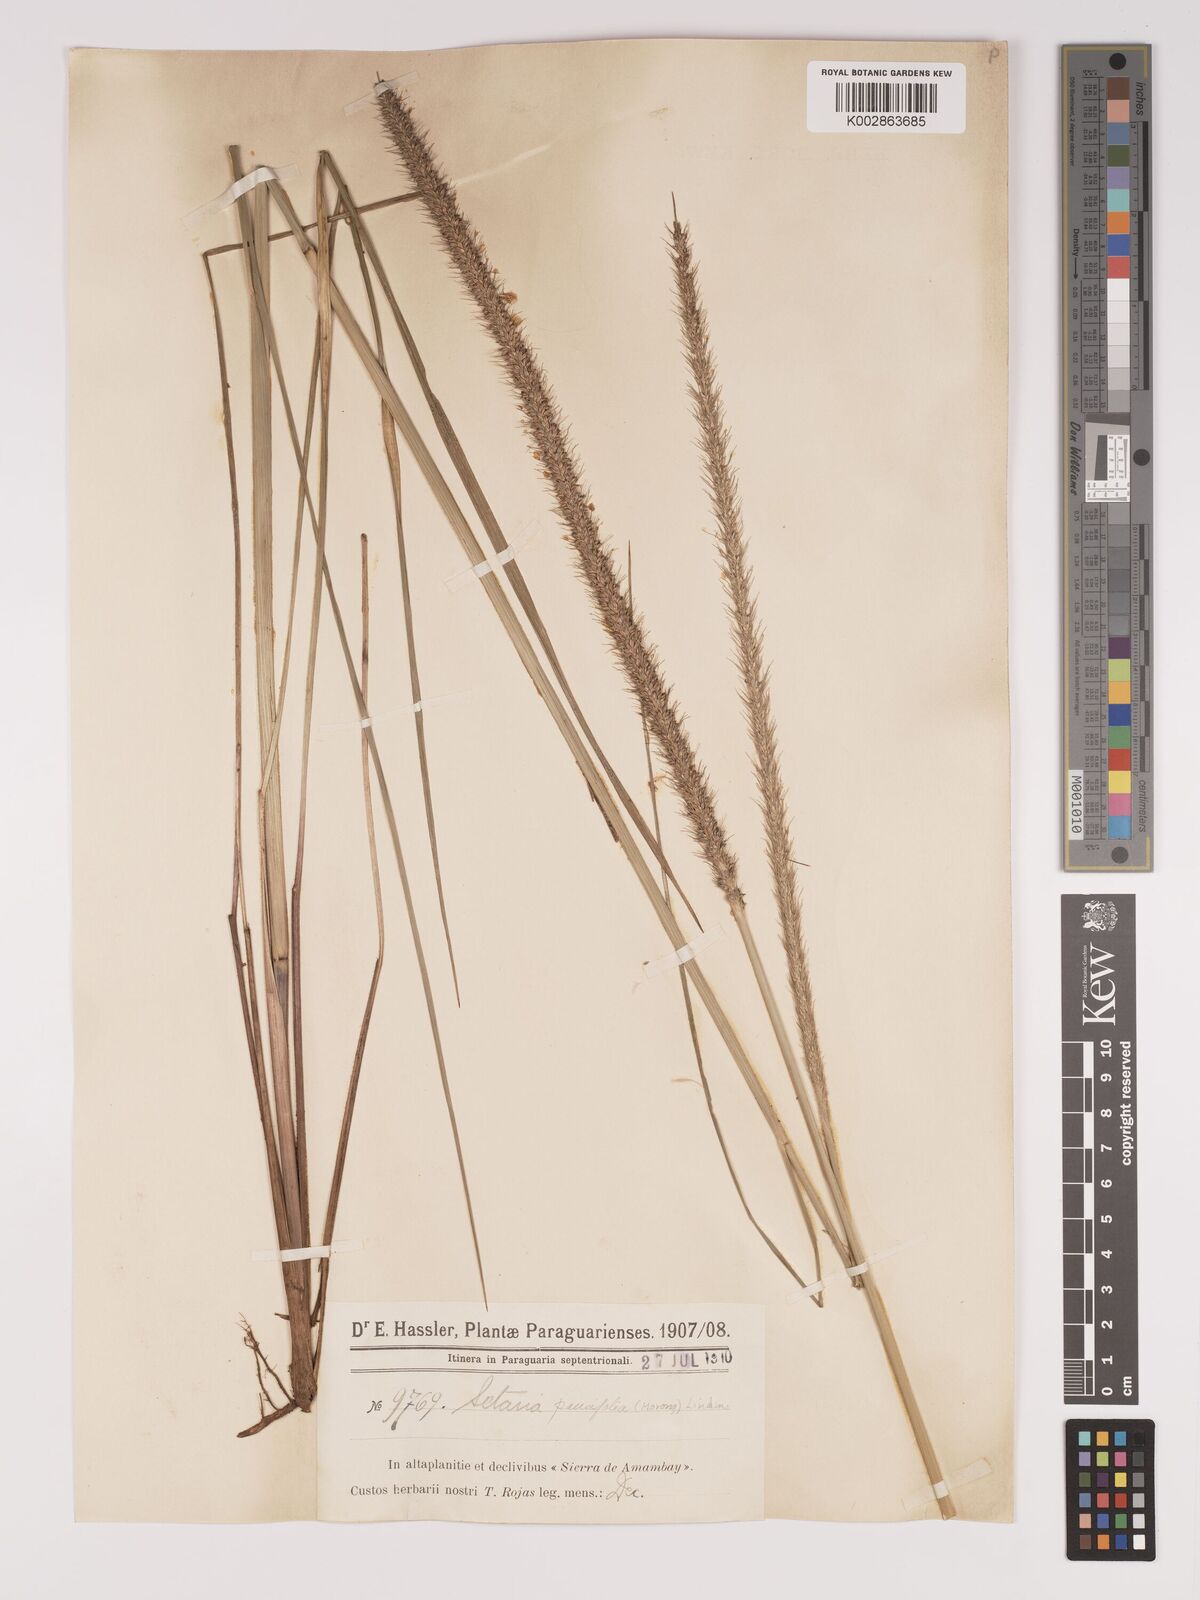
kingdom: Plantae
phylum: Tracheophyta
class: Liliopsida
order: Poales
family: Poaceae
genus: Setaria
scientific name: Setaria paucifolia
